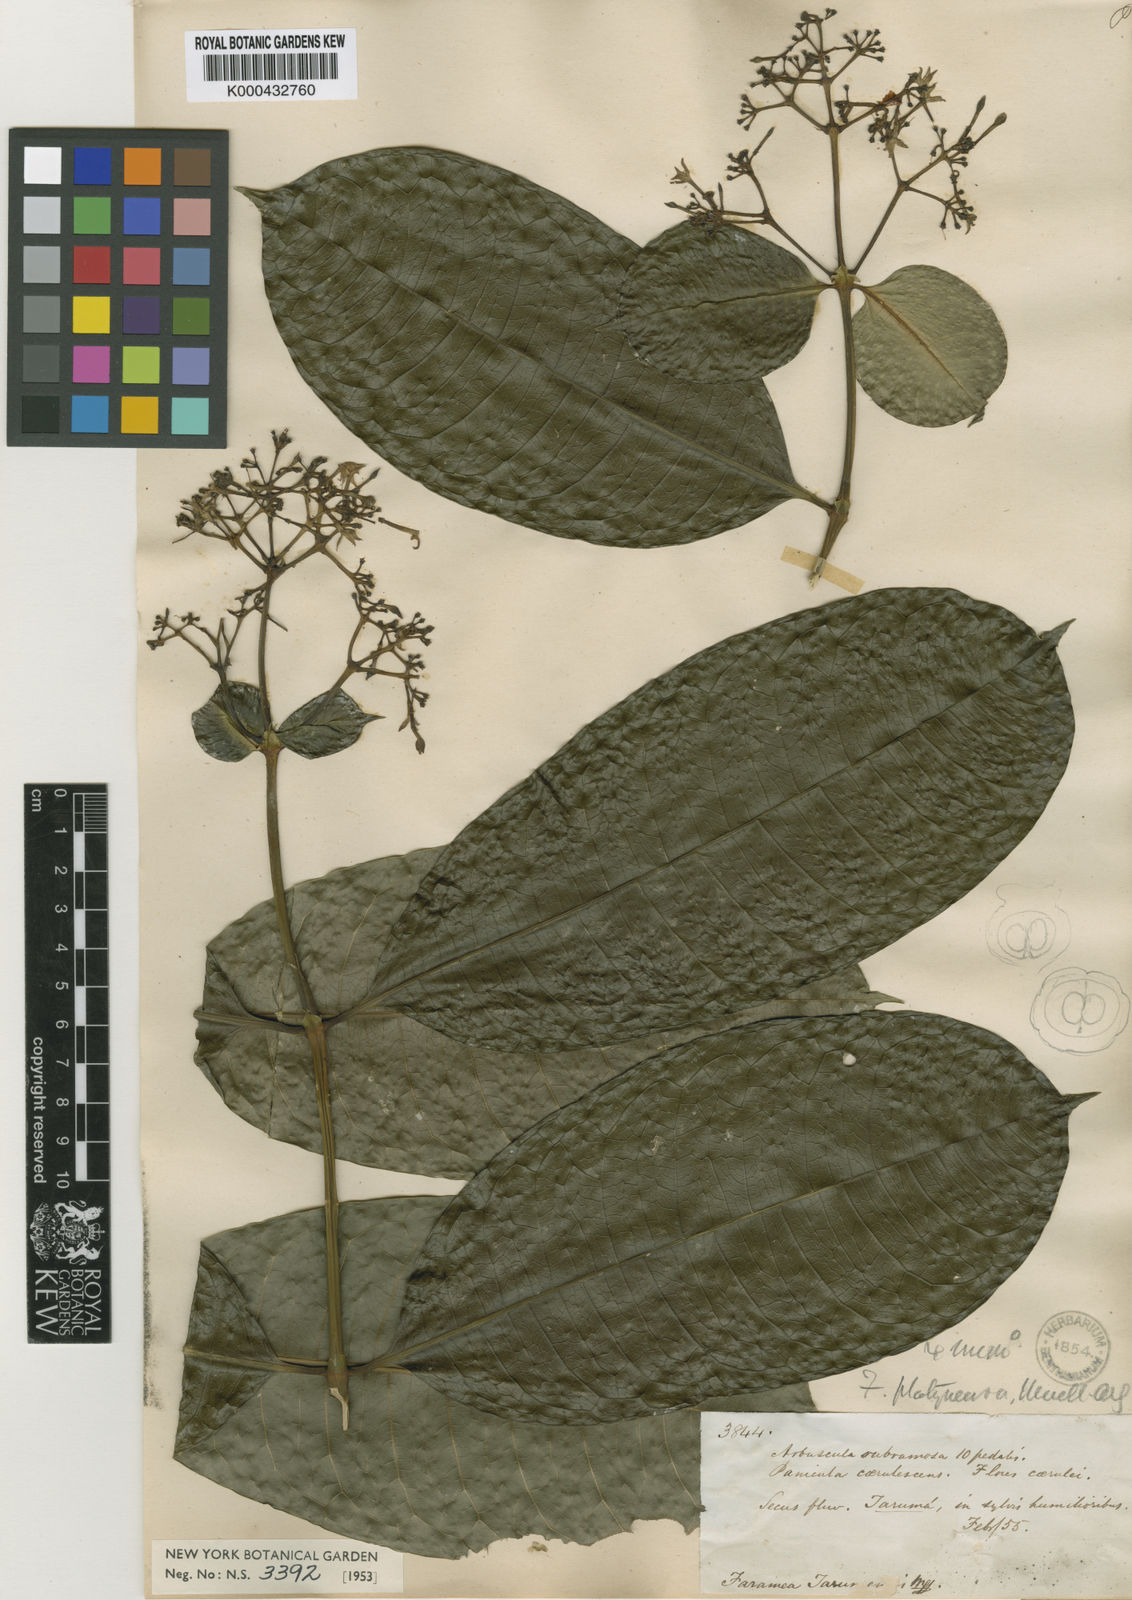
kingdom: Plantae
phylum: Tracheophyta
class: Magnoliopsida
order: Gentianales
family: Rubiaceae
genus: Faramea
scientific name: Faramea
